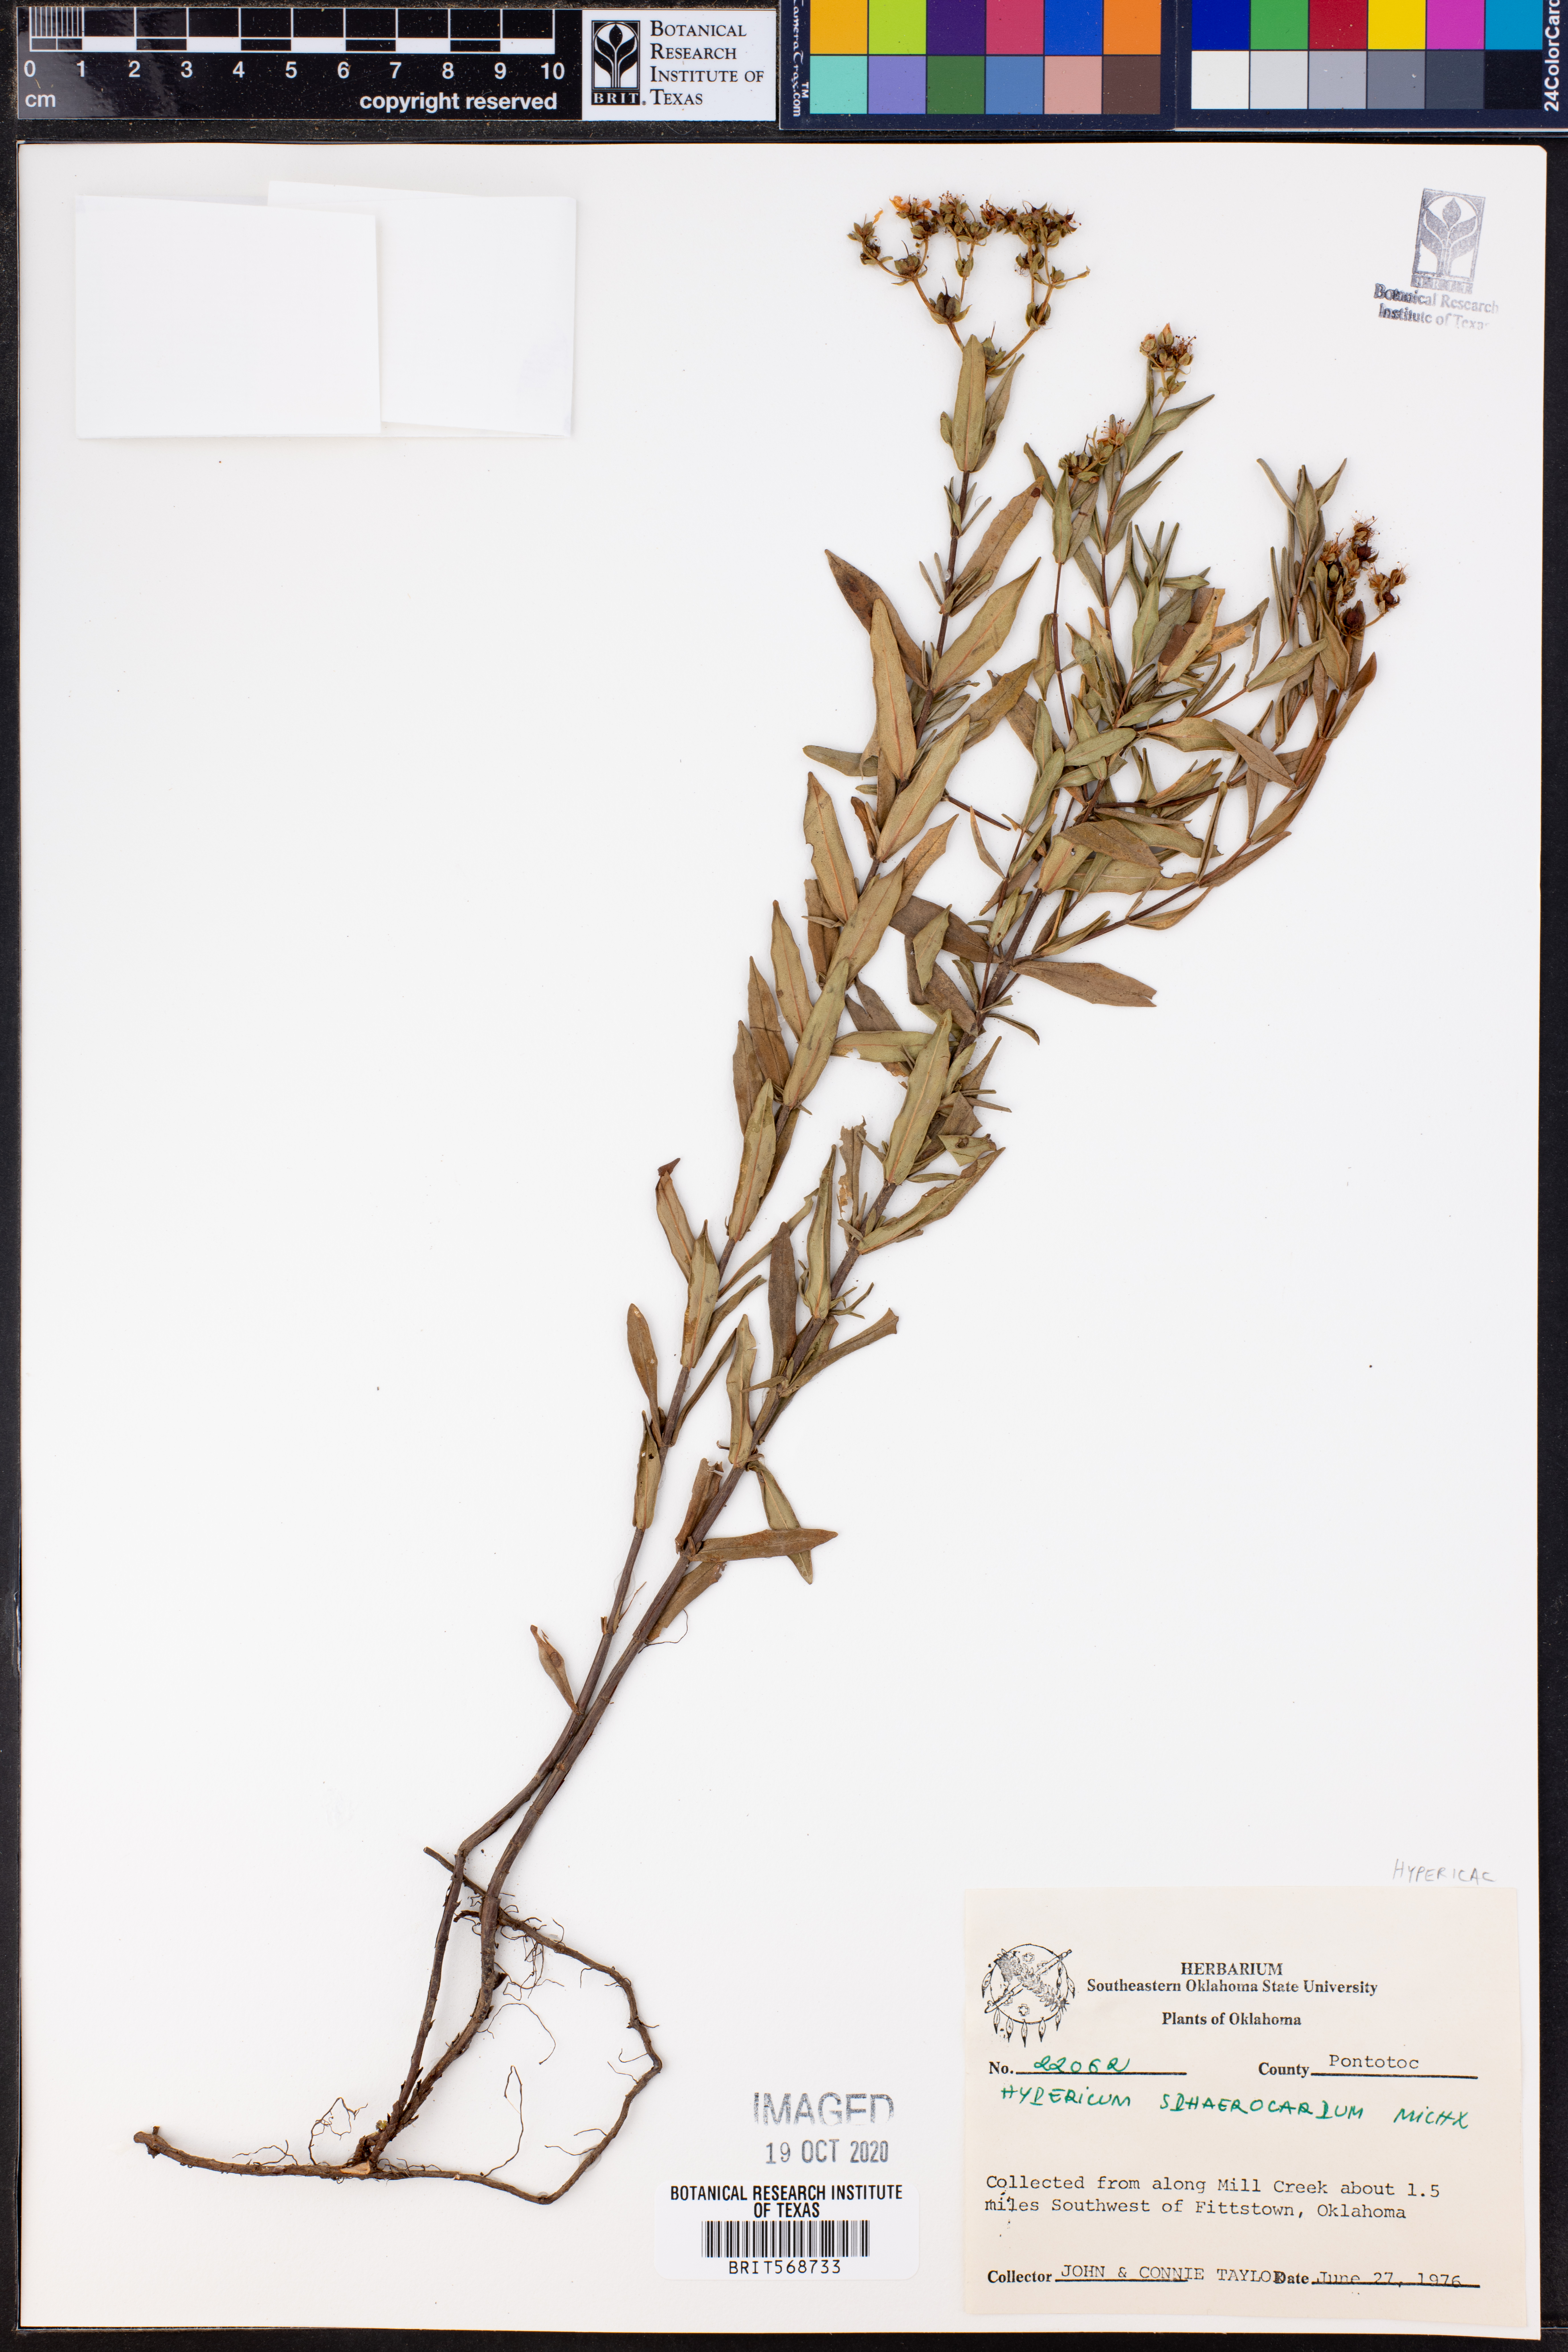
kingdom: Plantae
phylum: Tracheophyta
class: Magnoliopsida
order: Malpighiales
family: Hypericaceae
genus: Hypericum
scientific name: Hypericum sphaerocarpum
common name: Round-fruited st. john's-wort
